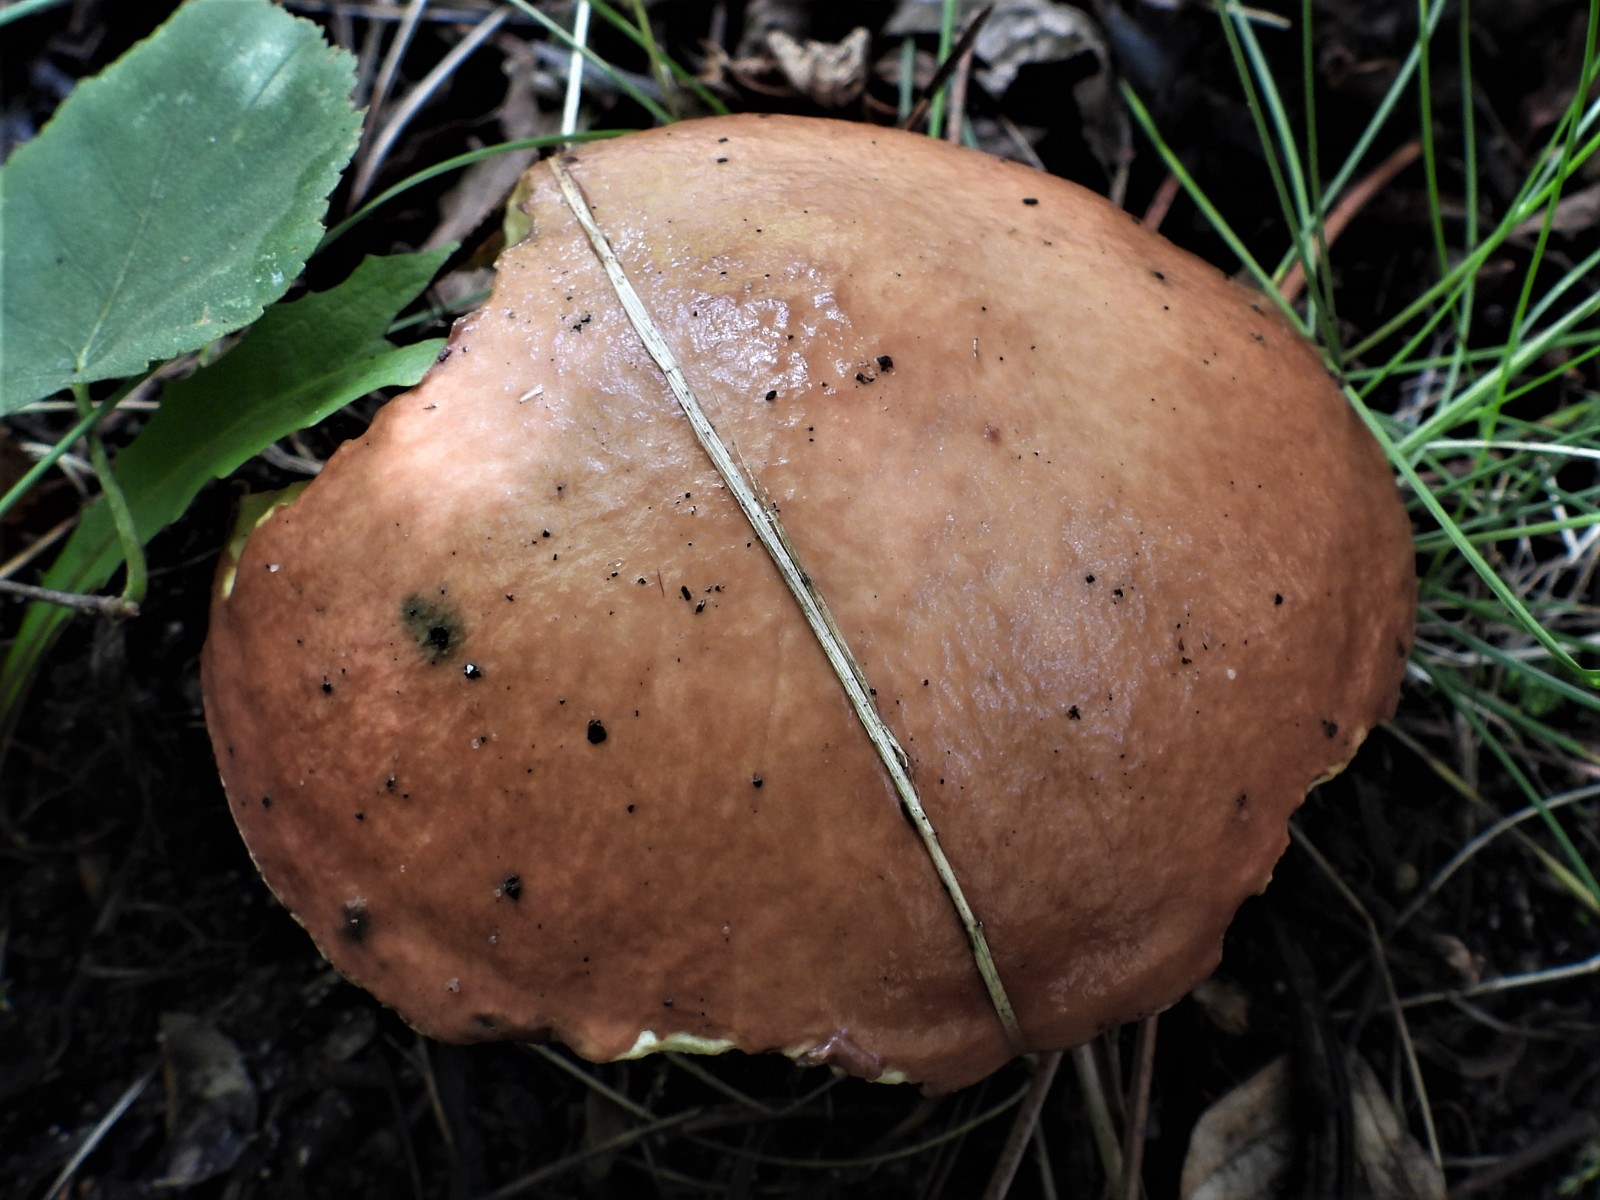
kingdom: Fungi
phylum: Basidiomycota
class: Agaricomycetes
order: Boletales
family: Suillaceae
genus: Suillus
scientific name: Suillus granulatus
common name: kornet slimrørhat
